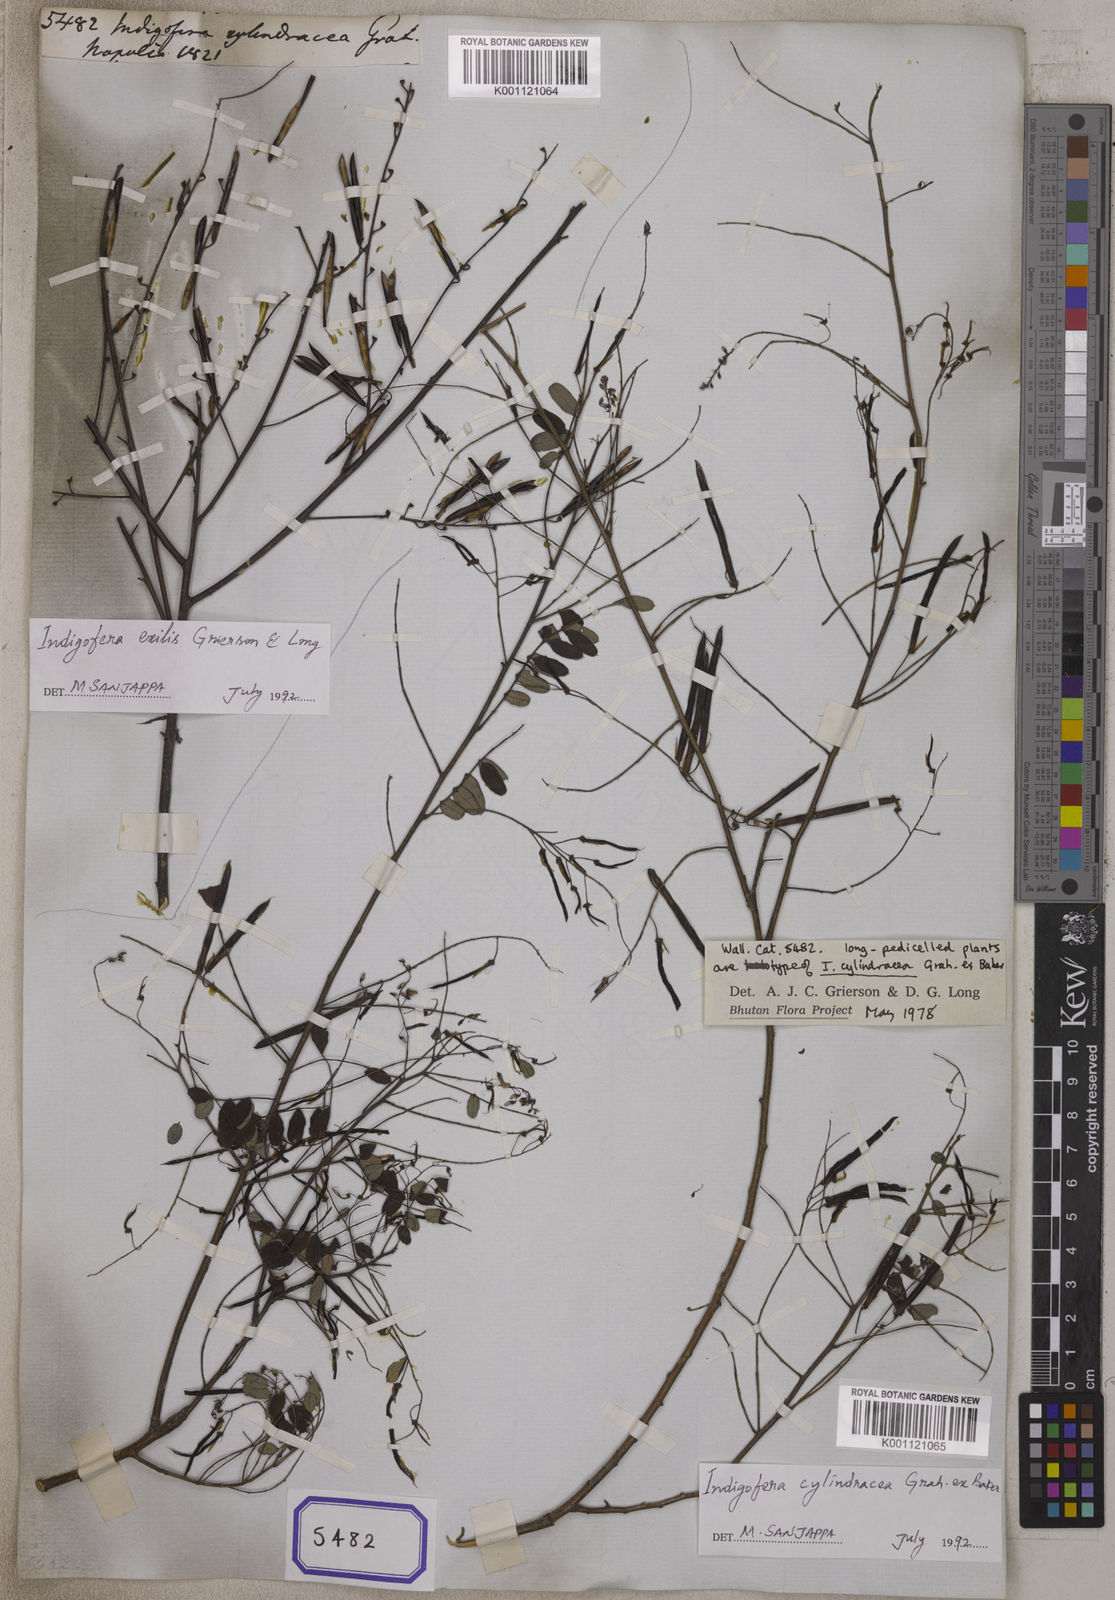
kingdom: Plantae
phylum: Tracheophyta
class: Magnoliopsida
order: Fabales
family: Fabaceae
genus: Indigofera
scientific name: Indigofera
